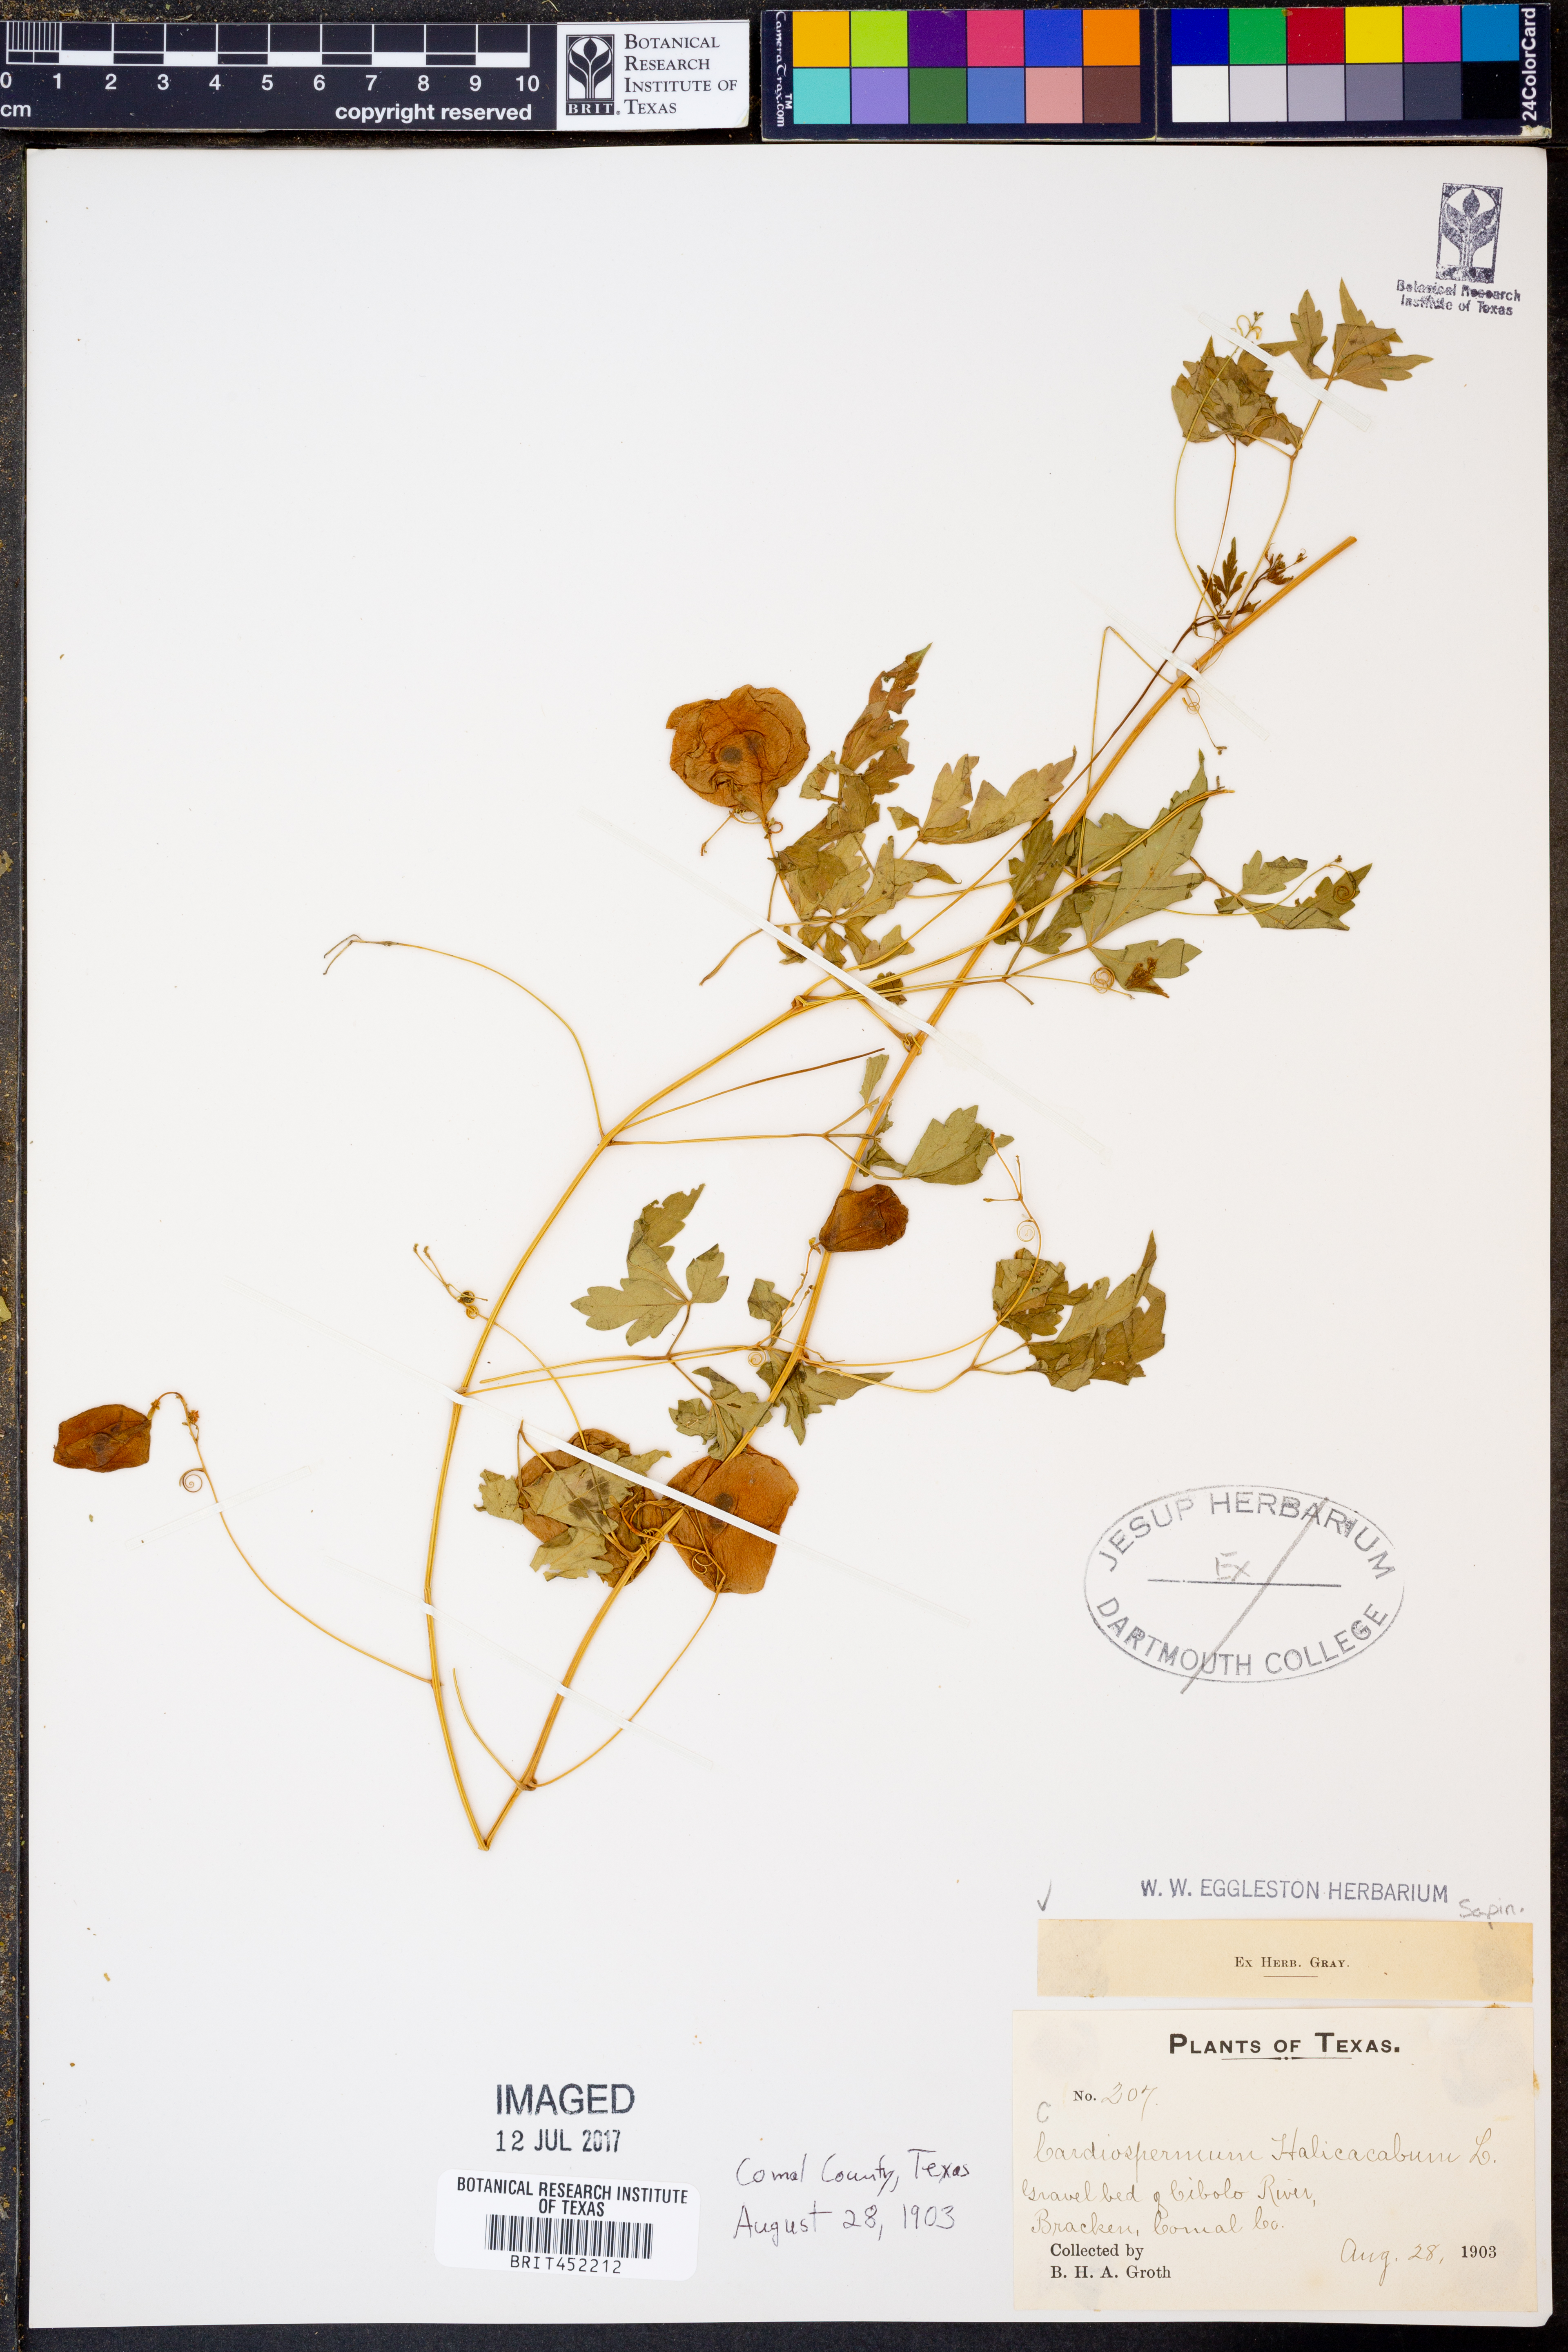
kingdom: Plantae
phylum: Tracheophyta
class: Magnoliopsida
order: Sapindales
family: Sapindaceae
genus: Cardiospermum
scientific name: Cardiospermum halicacabum
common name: Balloon vine
